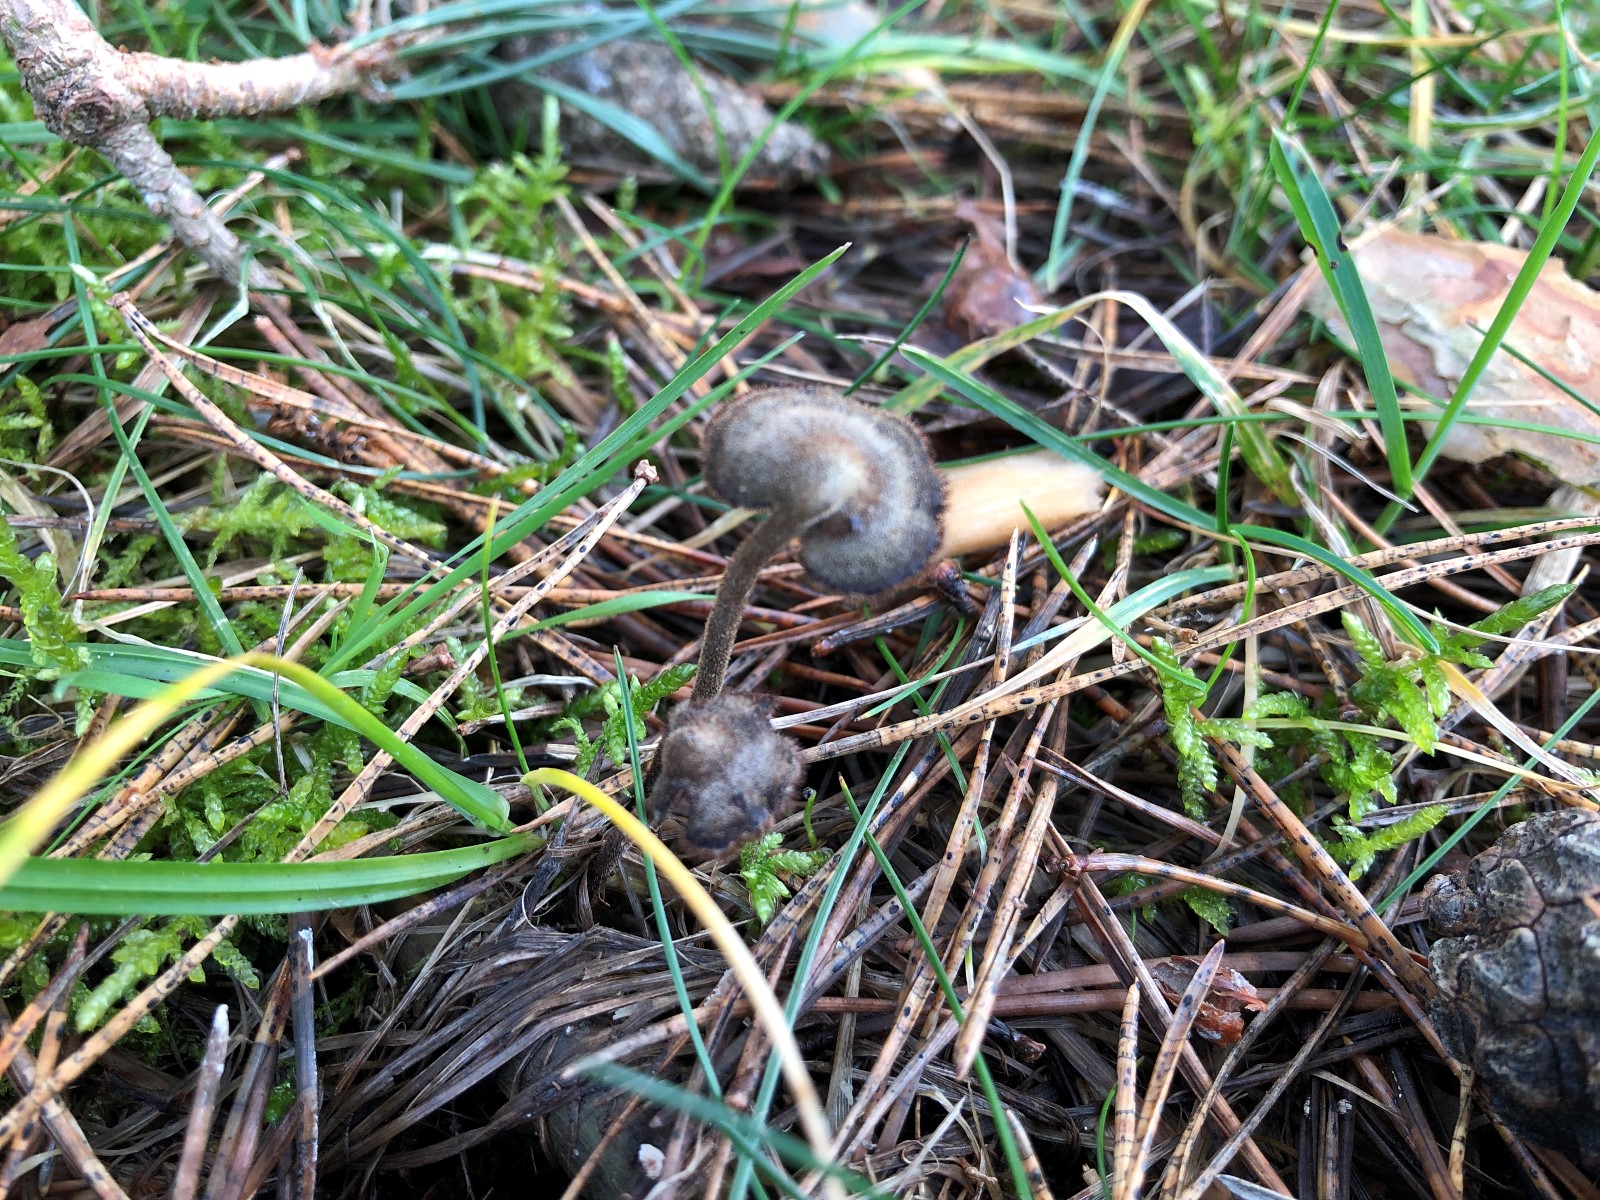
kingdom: Fungi
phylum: Basidiomycota
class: Agaricomycetes
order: Russulales
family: Auriscalpiaceae
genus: Auriscalpium
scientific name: Auriscalpium vulgare
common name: koglepigsvamp
